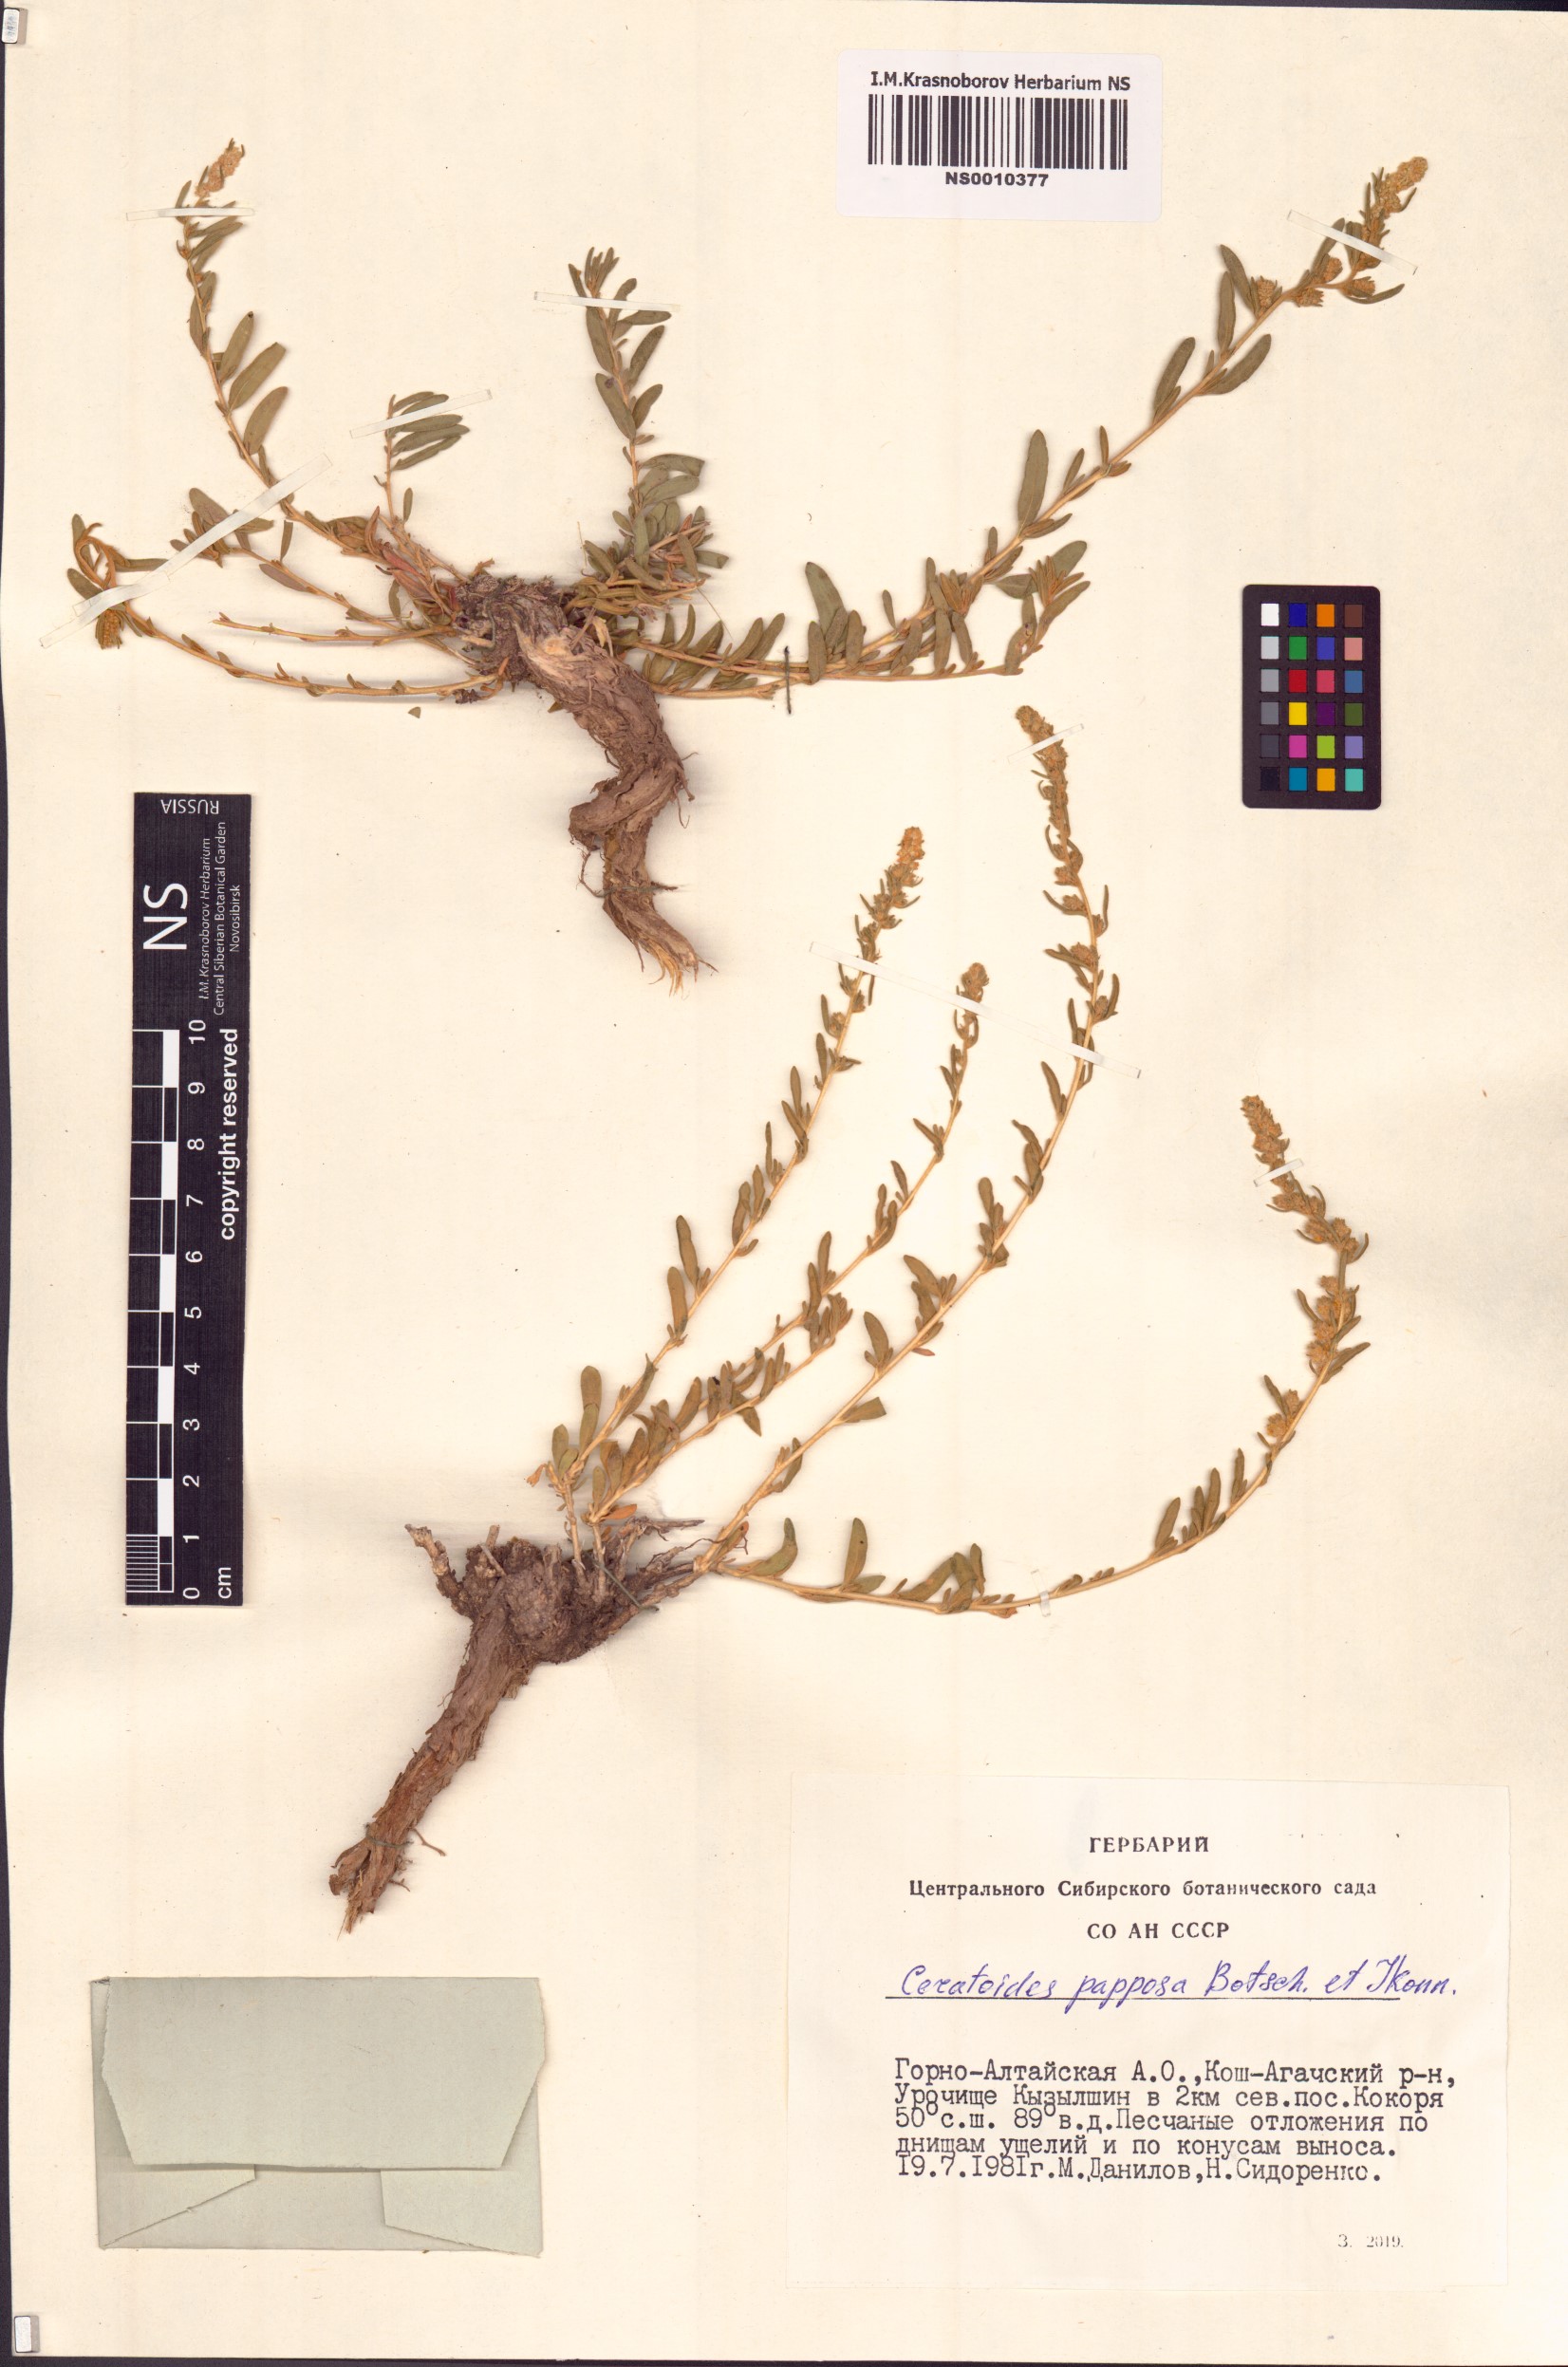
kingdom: Plantae
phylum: Tracheophyta
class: Magnoliopsida
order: Caryophyllales
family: Amaranthaceae
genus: Krascheninnikovia
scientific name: Krascheninnikovia ceratoides
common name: Pamirian winterfat
